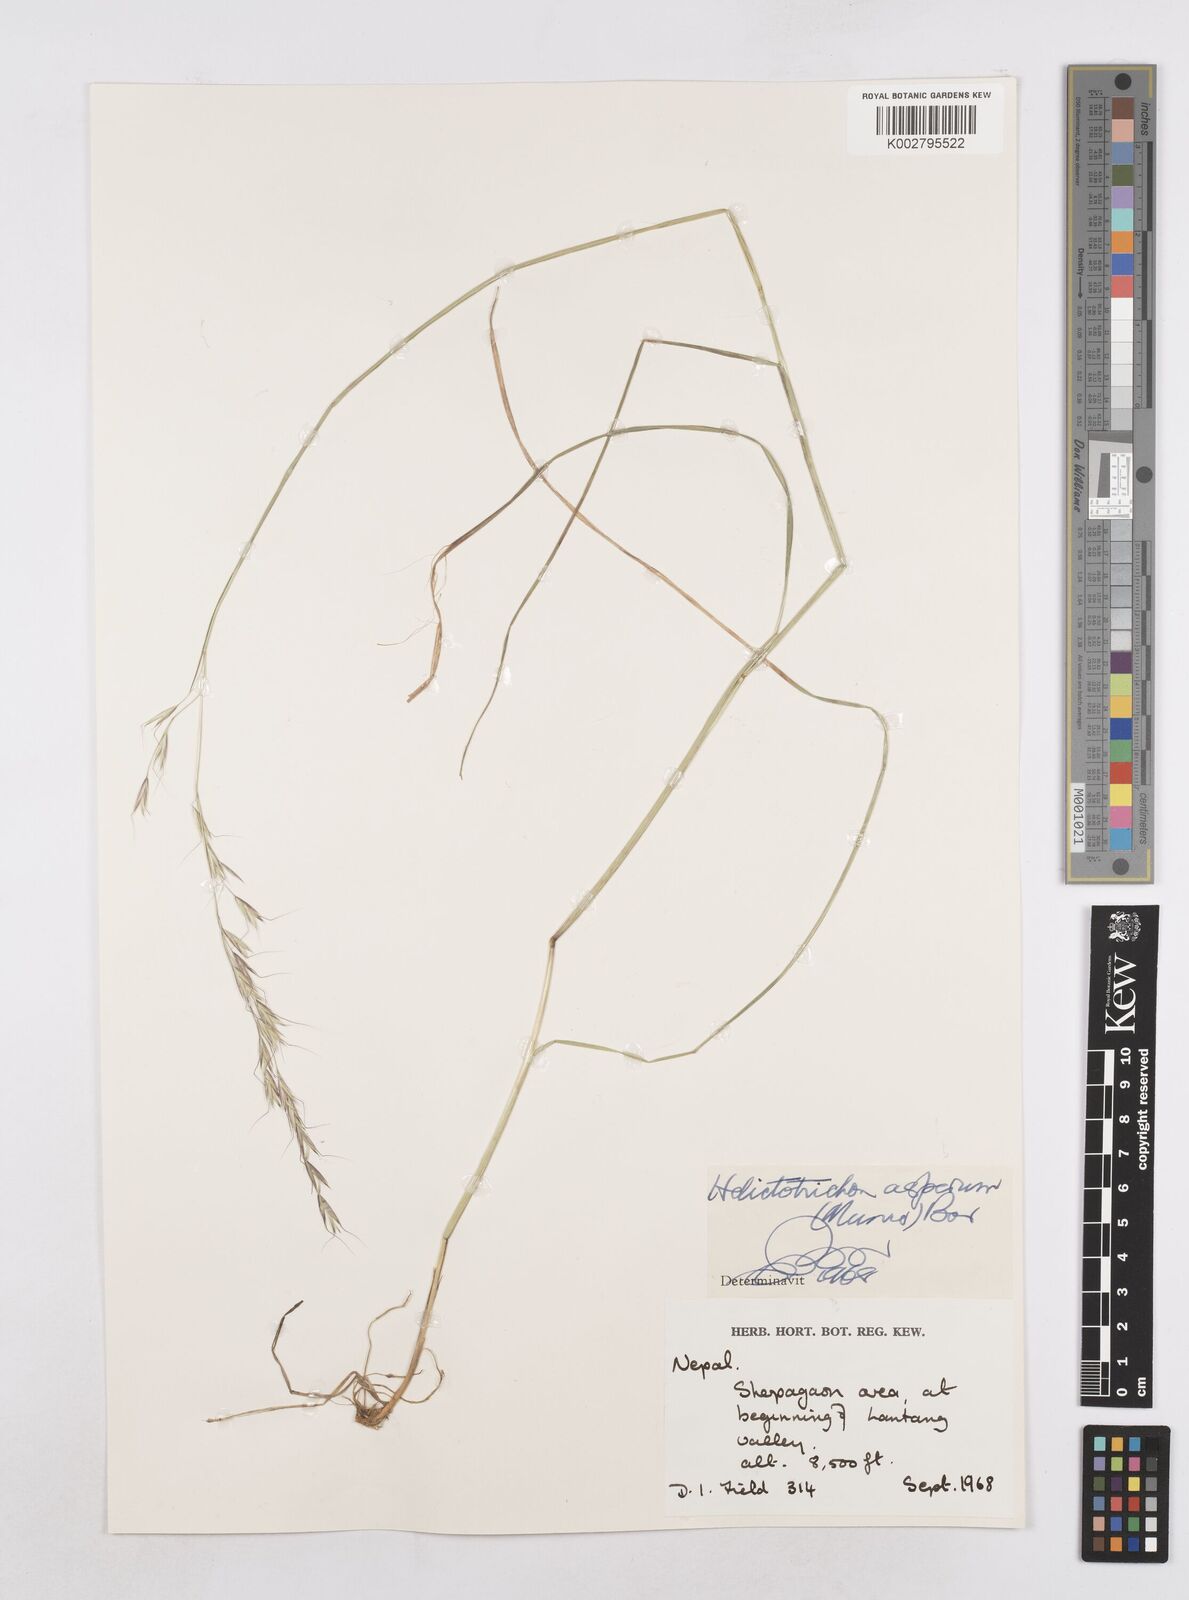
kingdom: Plantae
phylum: Tracheophyta
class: Liliopsida
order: Poales
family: Poaceae
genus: Trisetopsis
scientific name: Trisetopsis junghuhnii
